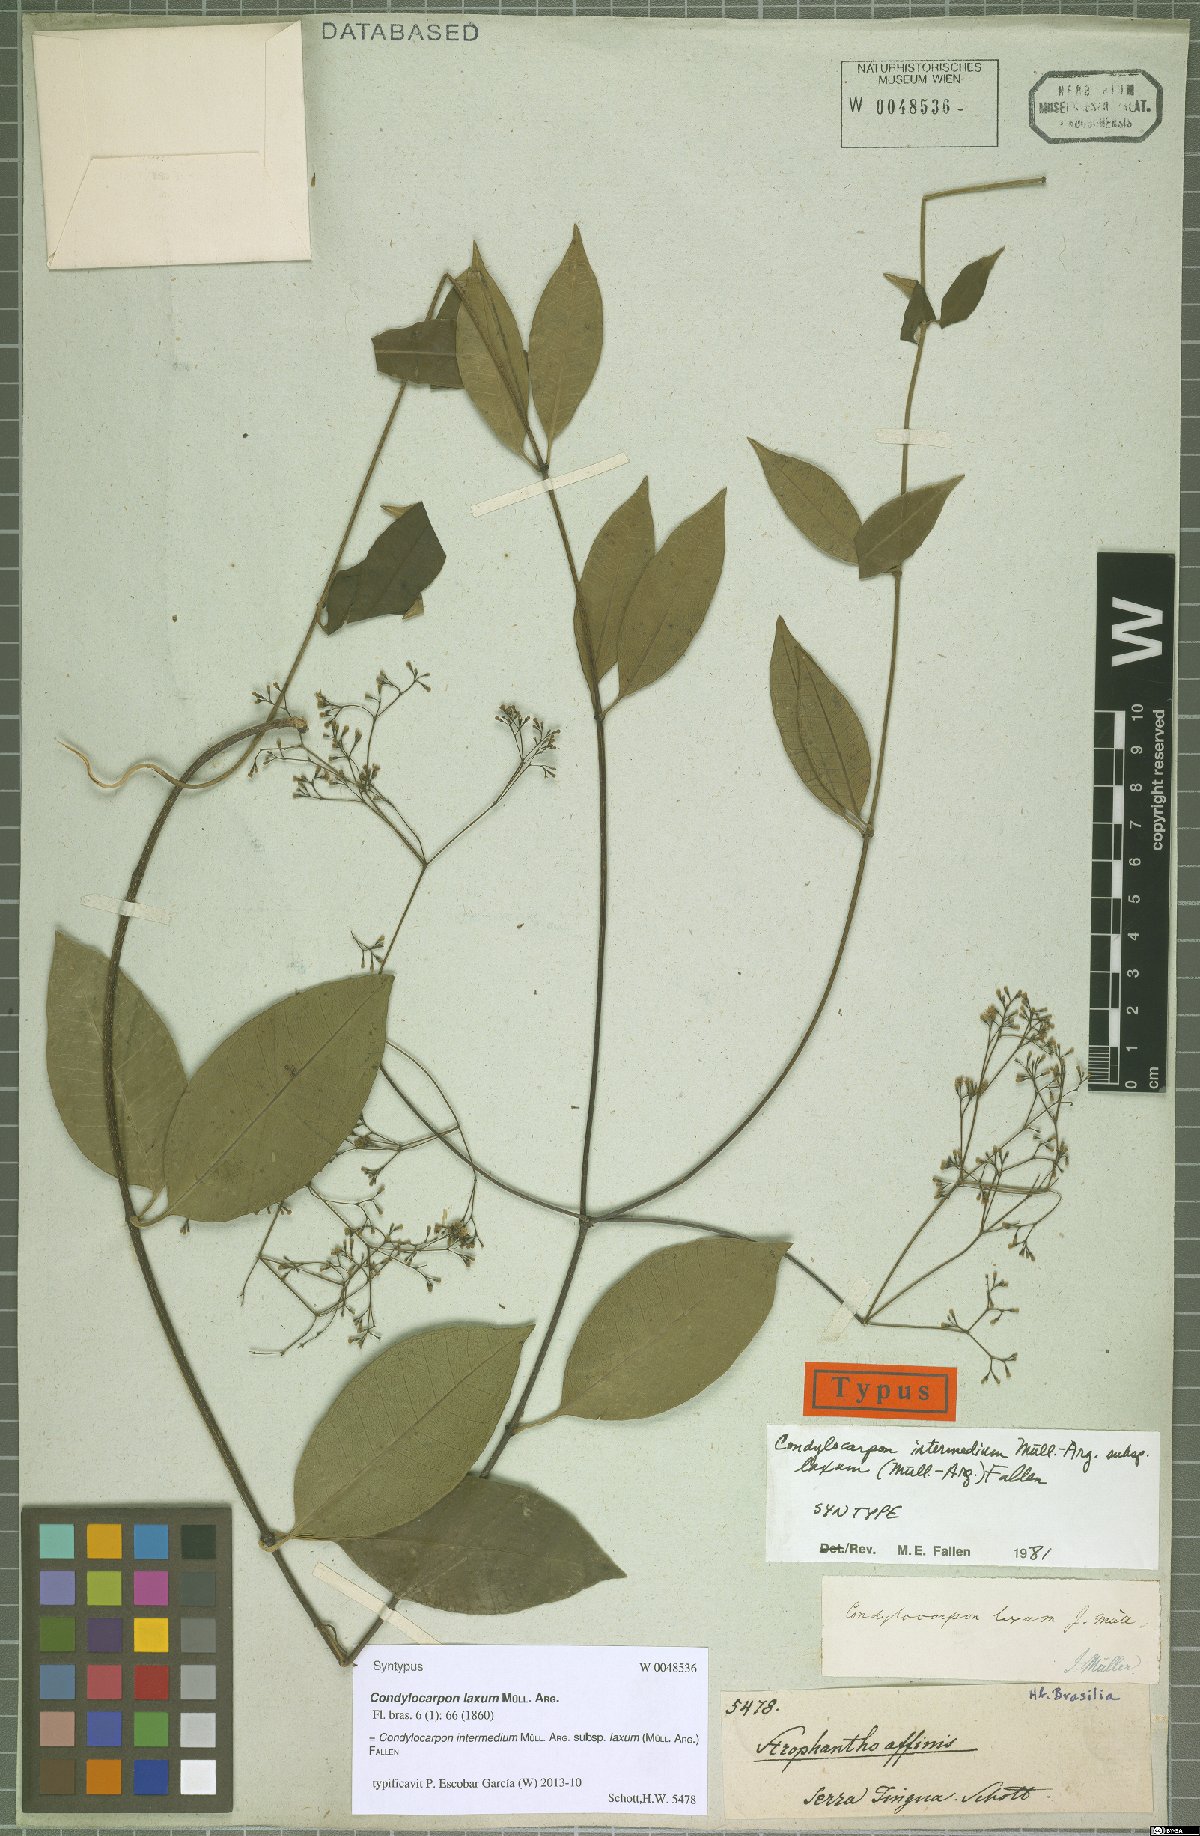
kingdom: Plantae
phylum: Tracheophyta
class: Magnoliopsida
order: Gentianales
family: Apocynaceae
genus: Condylocarpon
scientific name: Condylocarpon intermedium
